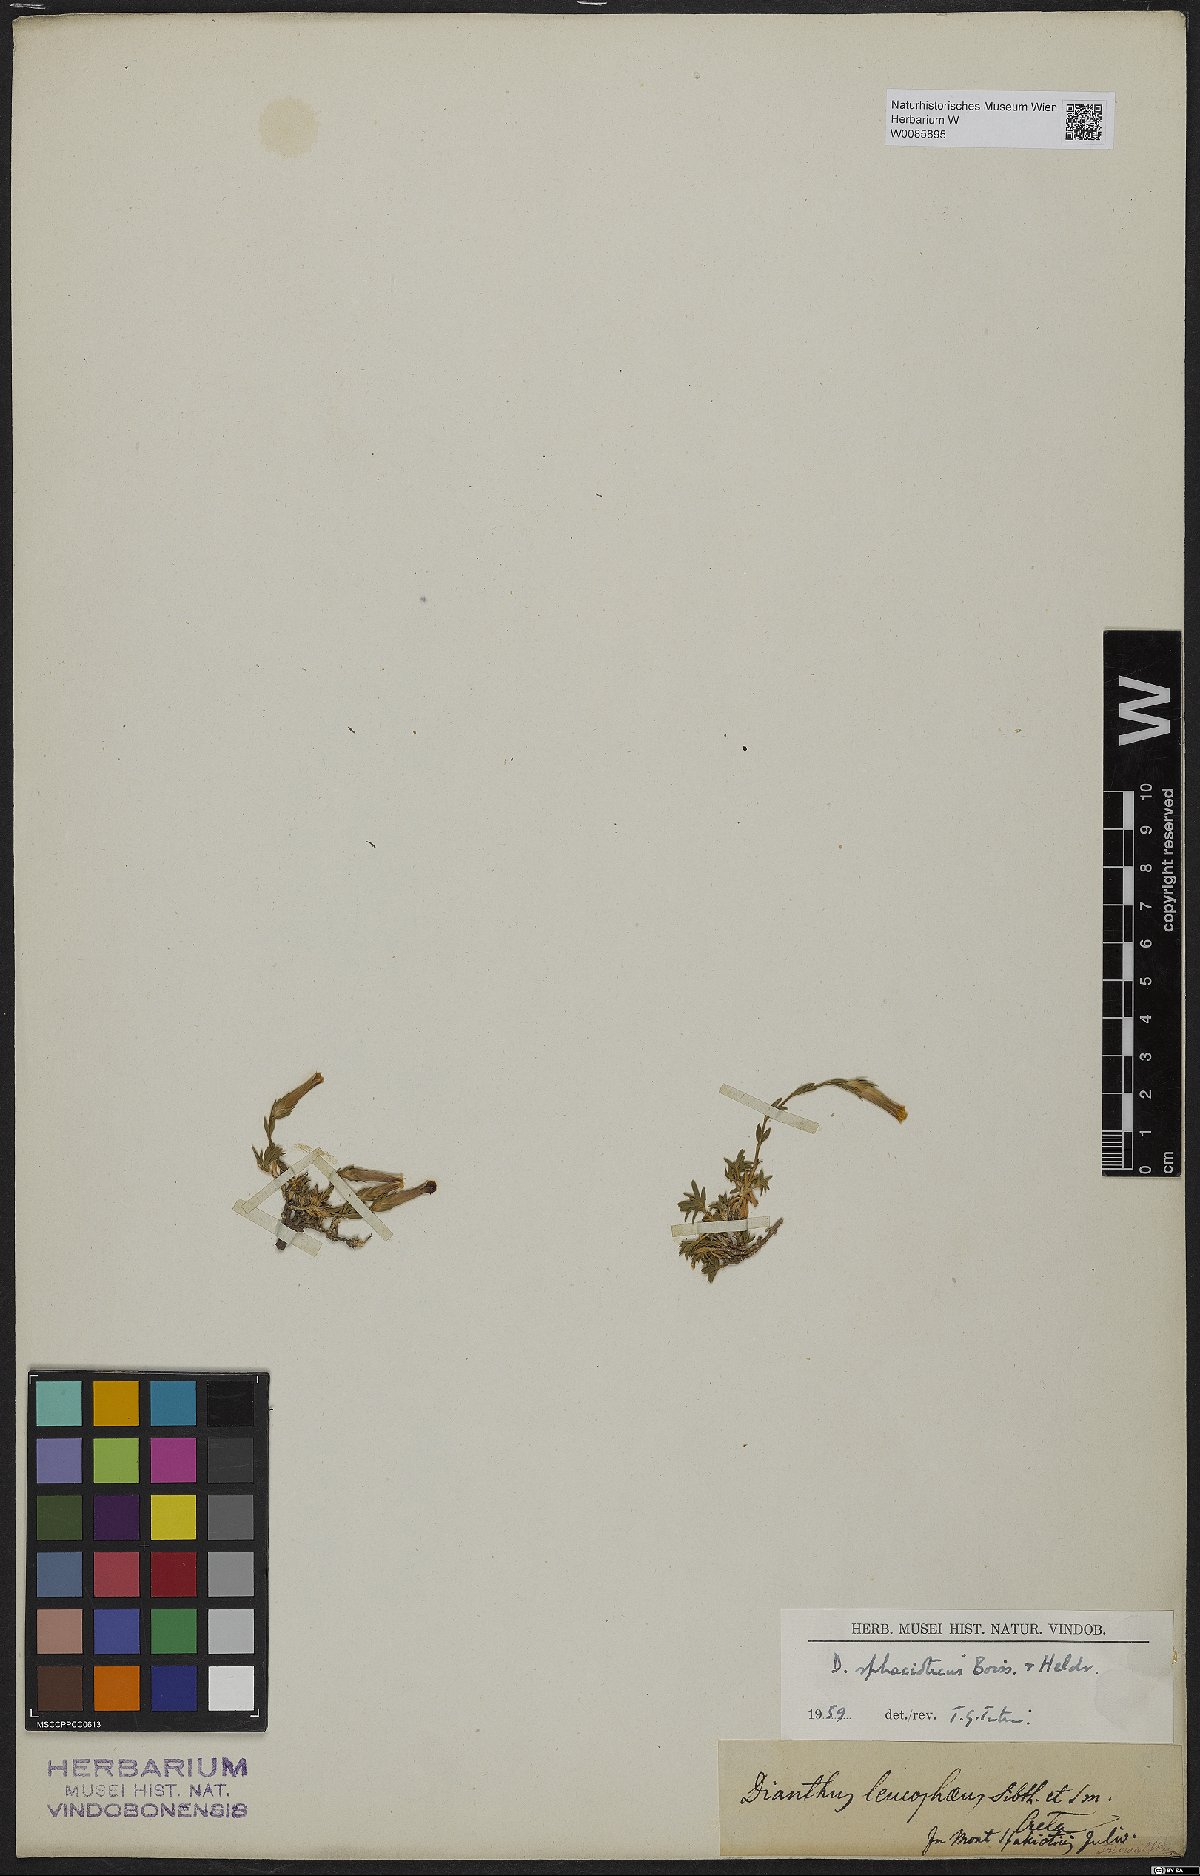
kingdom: Plantae
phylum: Tracheophyta
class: Magnoliopsida
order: Caryophyllales
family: Caryophyllaceae
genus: Dianthus
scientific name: Dianthus sphacioticus
